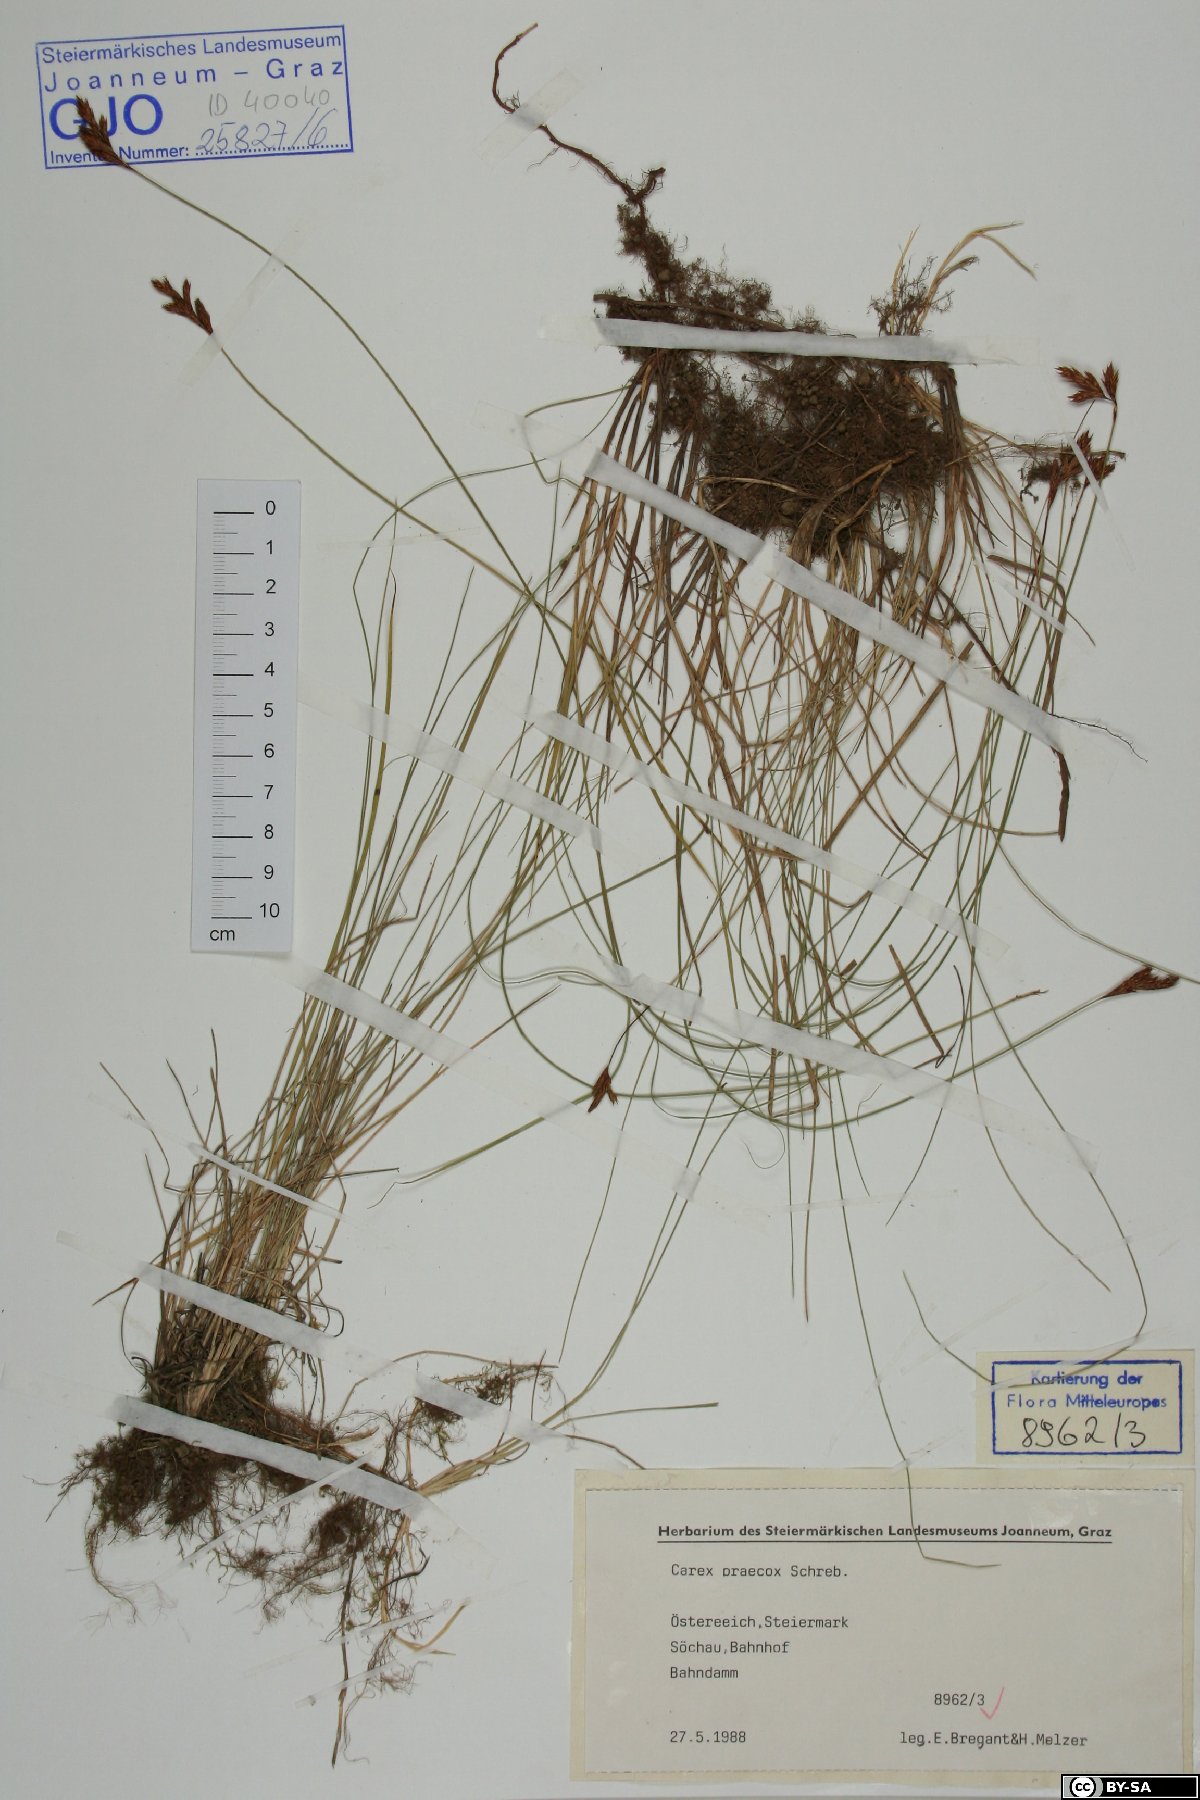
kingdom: Plantae
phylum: Tracheophyta
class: Liliopsida
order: Poales
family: Cyperaceae
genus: Carex
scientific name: Carex praecox
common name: Early sedge
